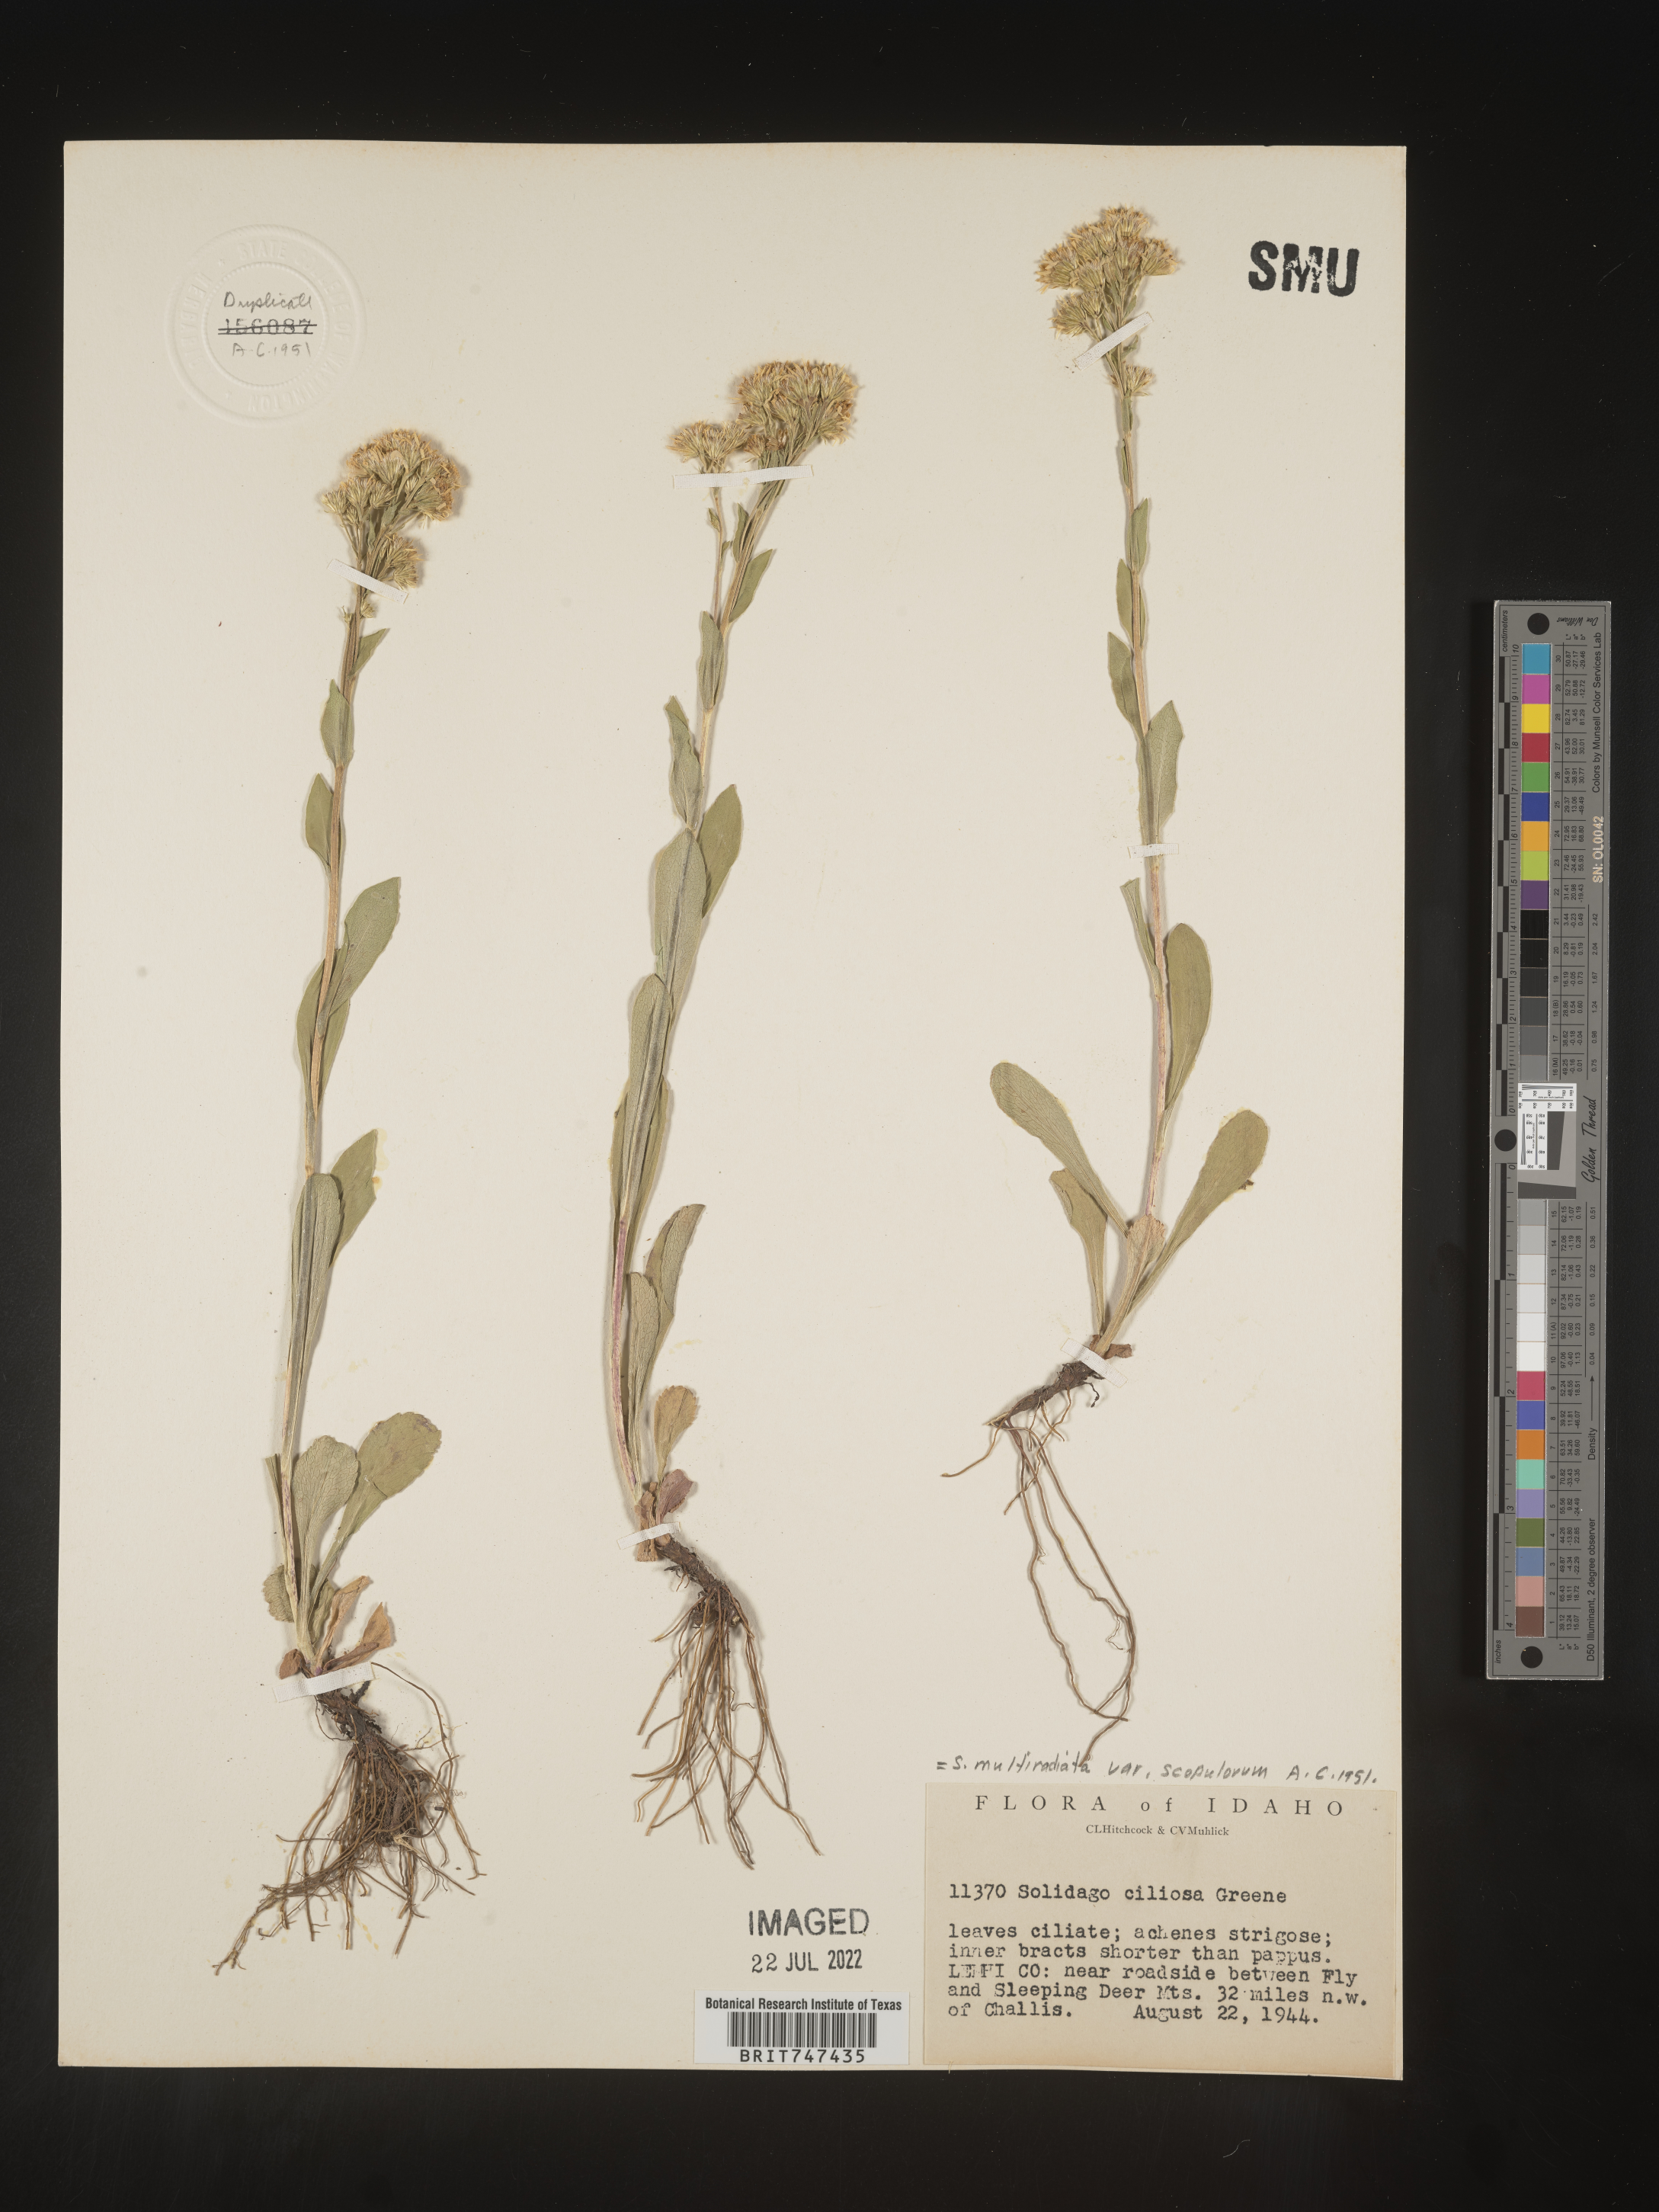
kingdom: Plantae
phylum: Tracheophyta
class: Magnoliopsida
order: Asterales
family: Asteraceae
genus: Solidago
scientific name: Solidago multiradiata
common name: Northern goldenrod
